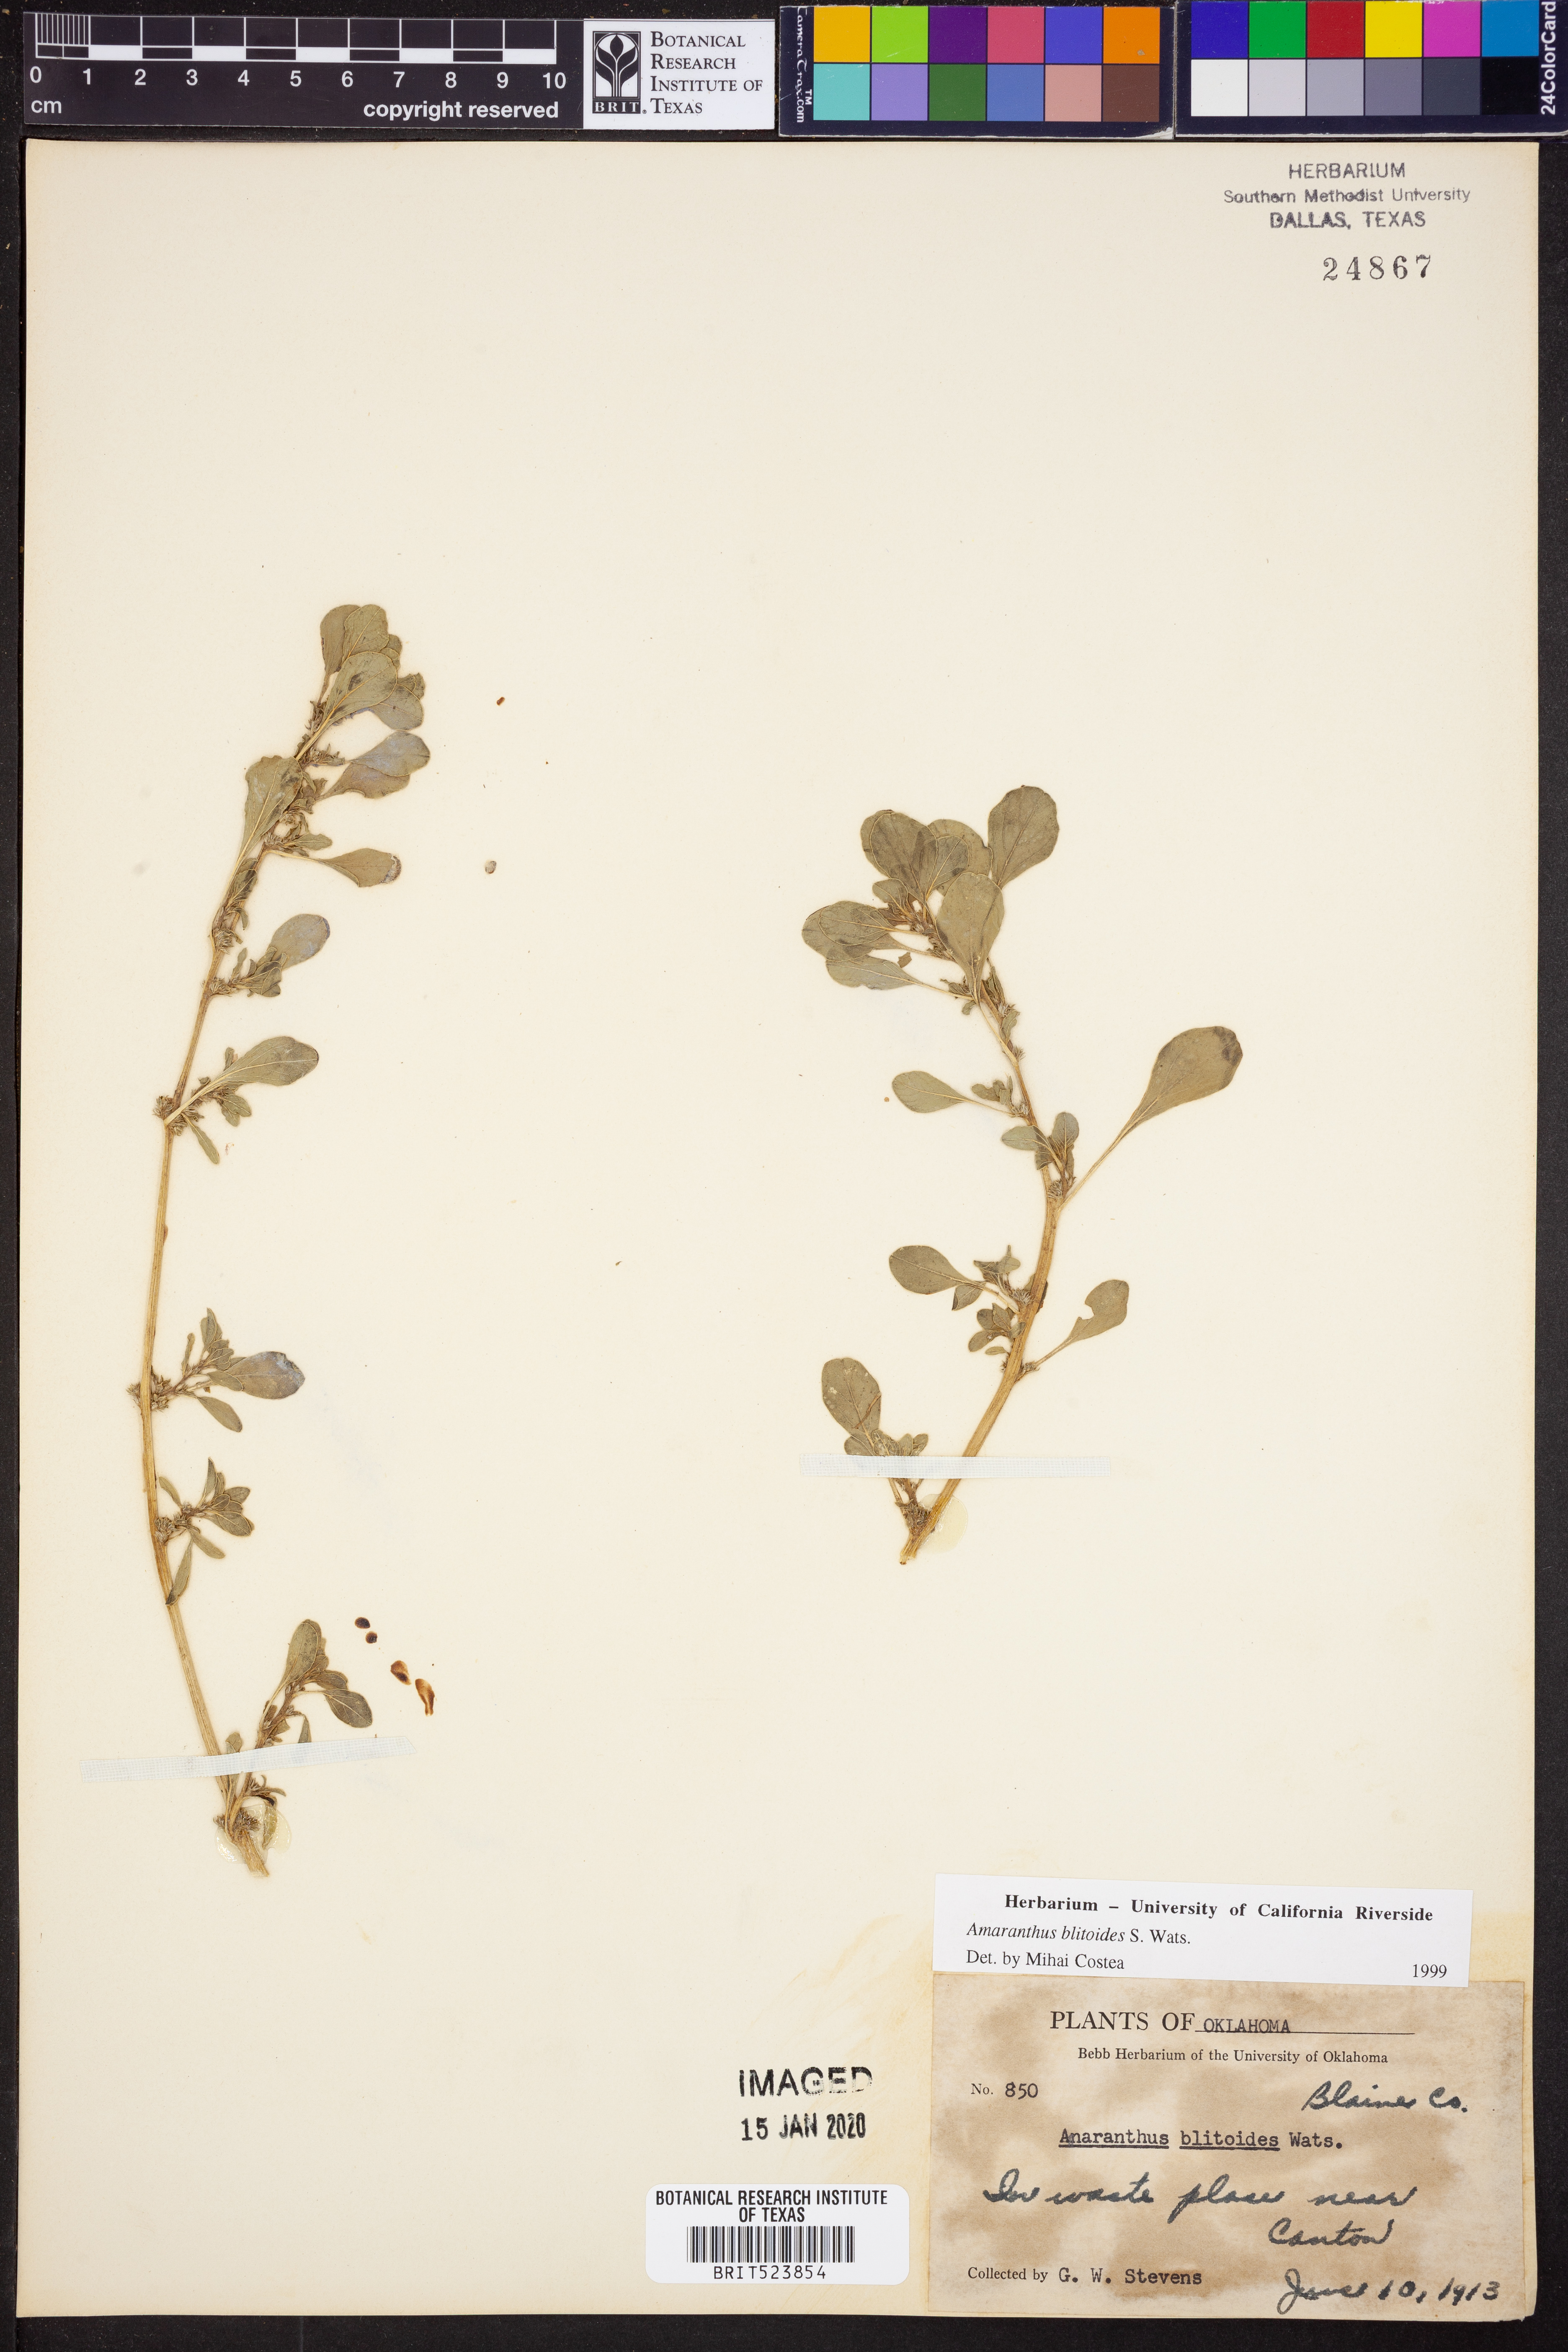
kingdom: Plantae
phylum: Tracheophyta
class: Magnoliopsida
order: Caryophyllales
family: Amaranthaceae
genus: Amaranthus
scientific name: Amaranthus blitoides
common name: Prostrate pigweed
